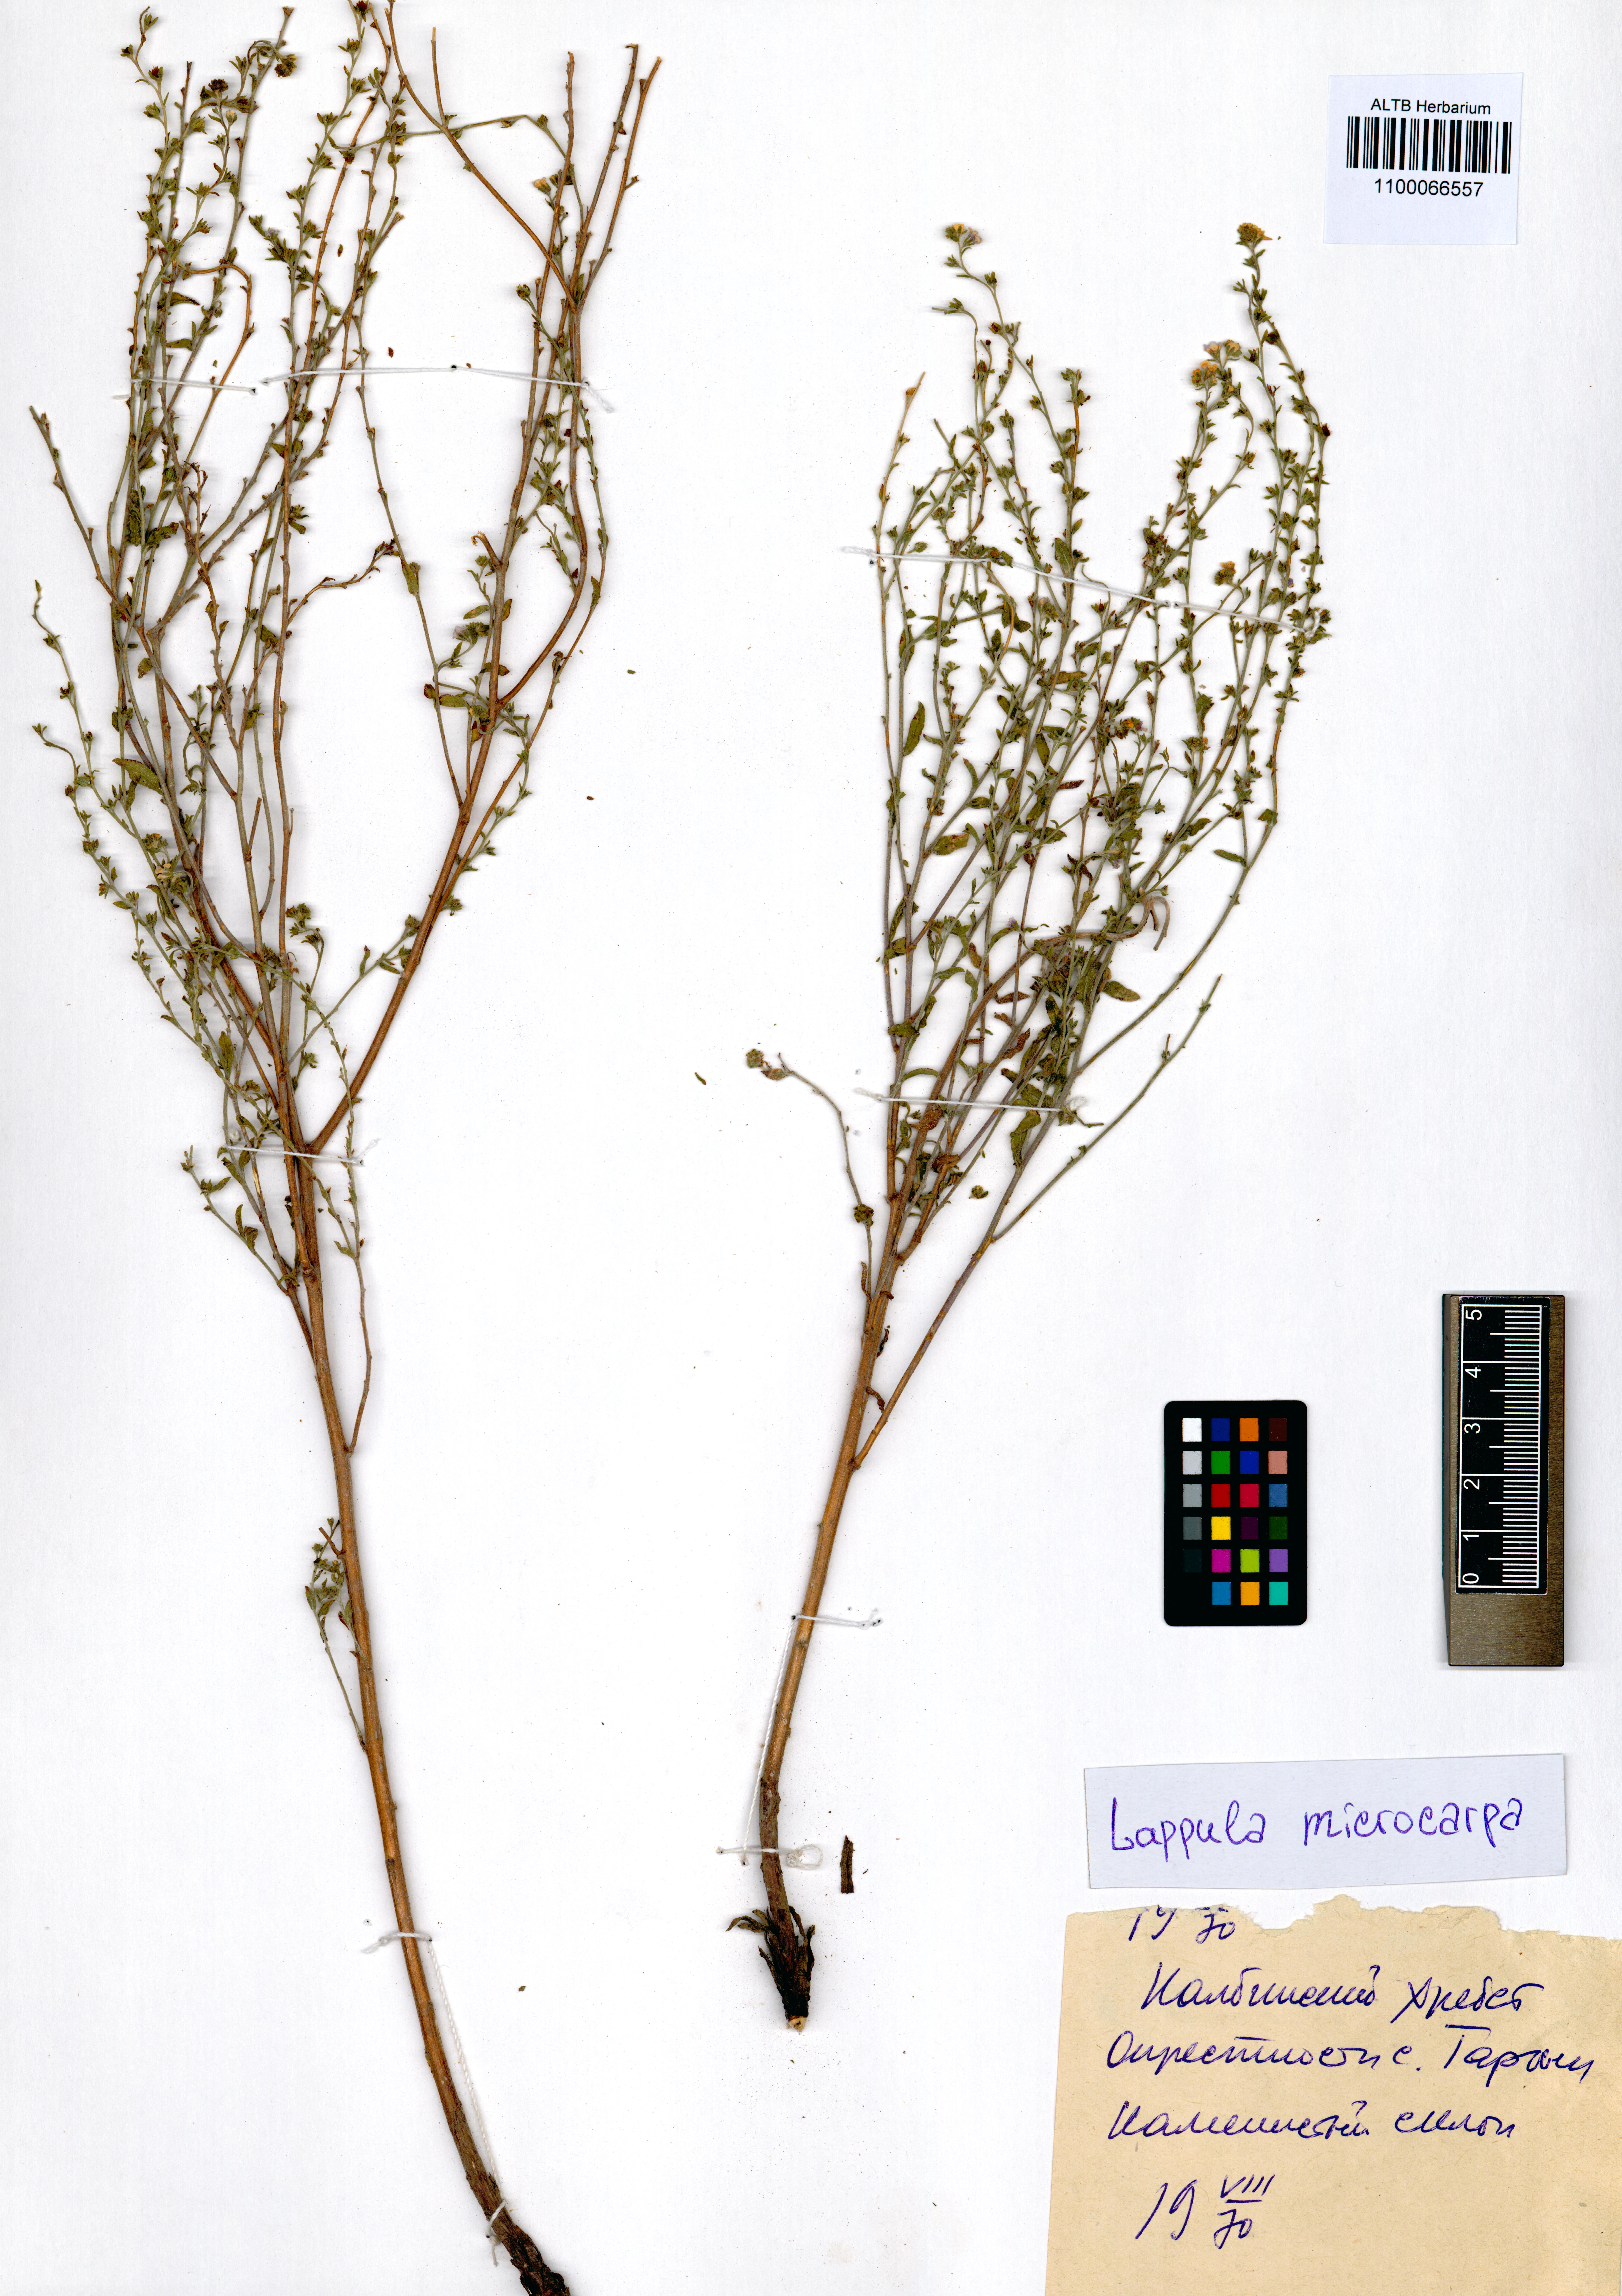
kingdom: Plantae
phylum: Tracheophyta
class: Magnoliopsida
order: Boraginales
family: Boraginaceae
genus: Lappula
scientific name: Lappula microcarpa
